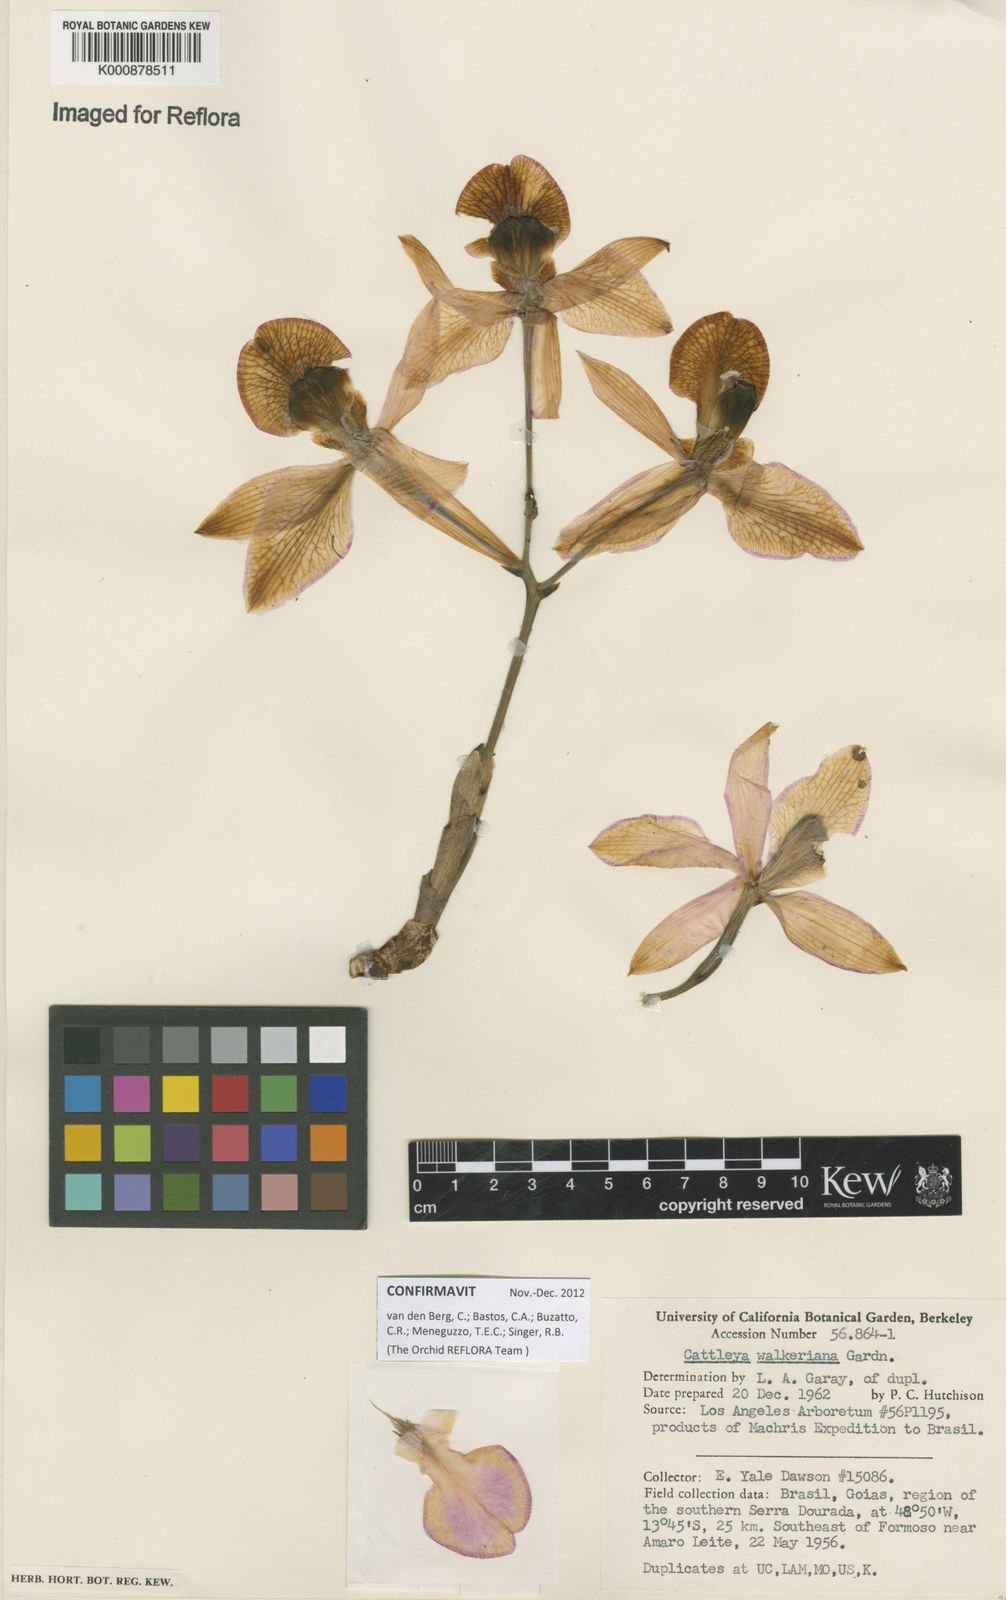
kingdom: Plantae
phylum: Tracheophyta
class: Liliopsida
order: Asparagales
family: Orchidaceae
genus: Cattleya
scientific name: Cattleya walkeriana
